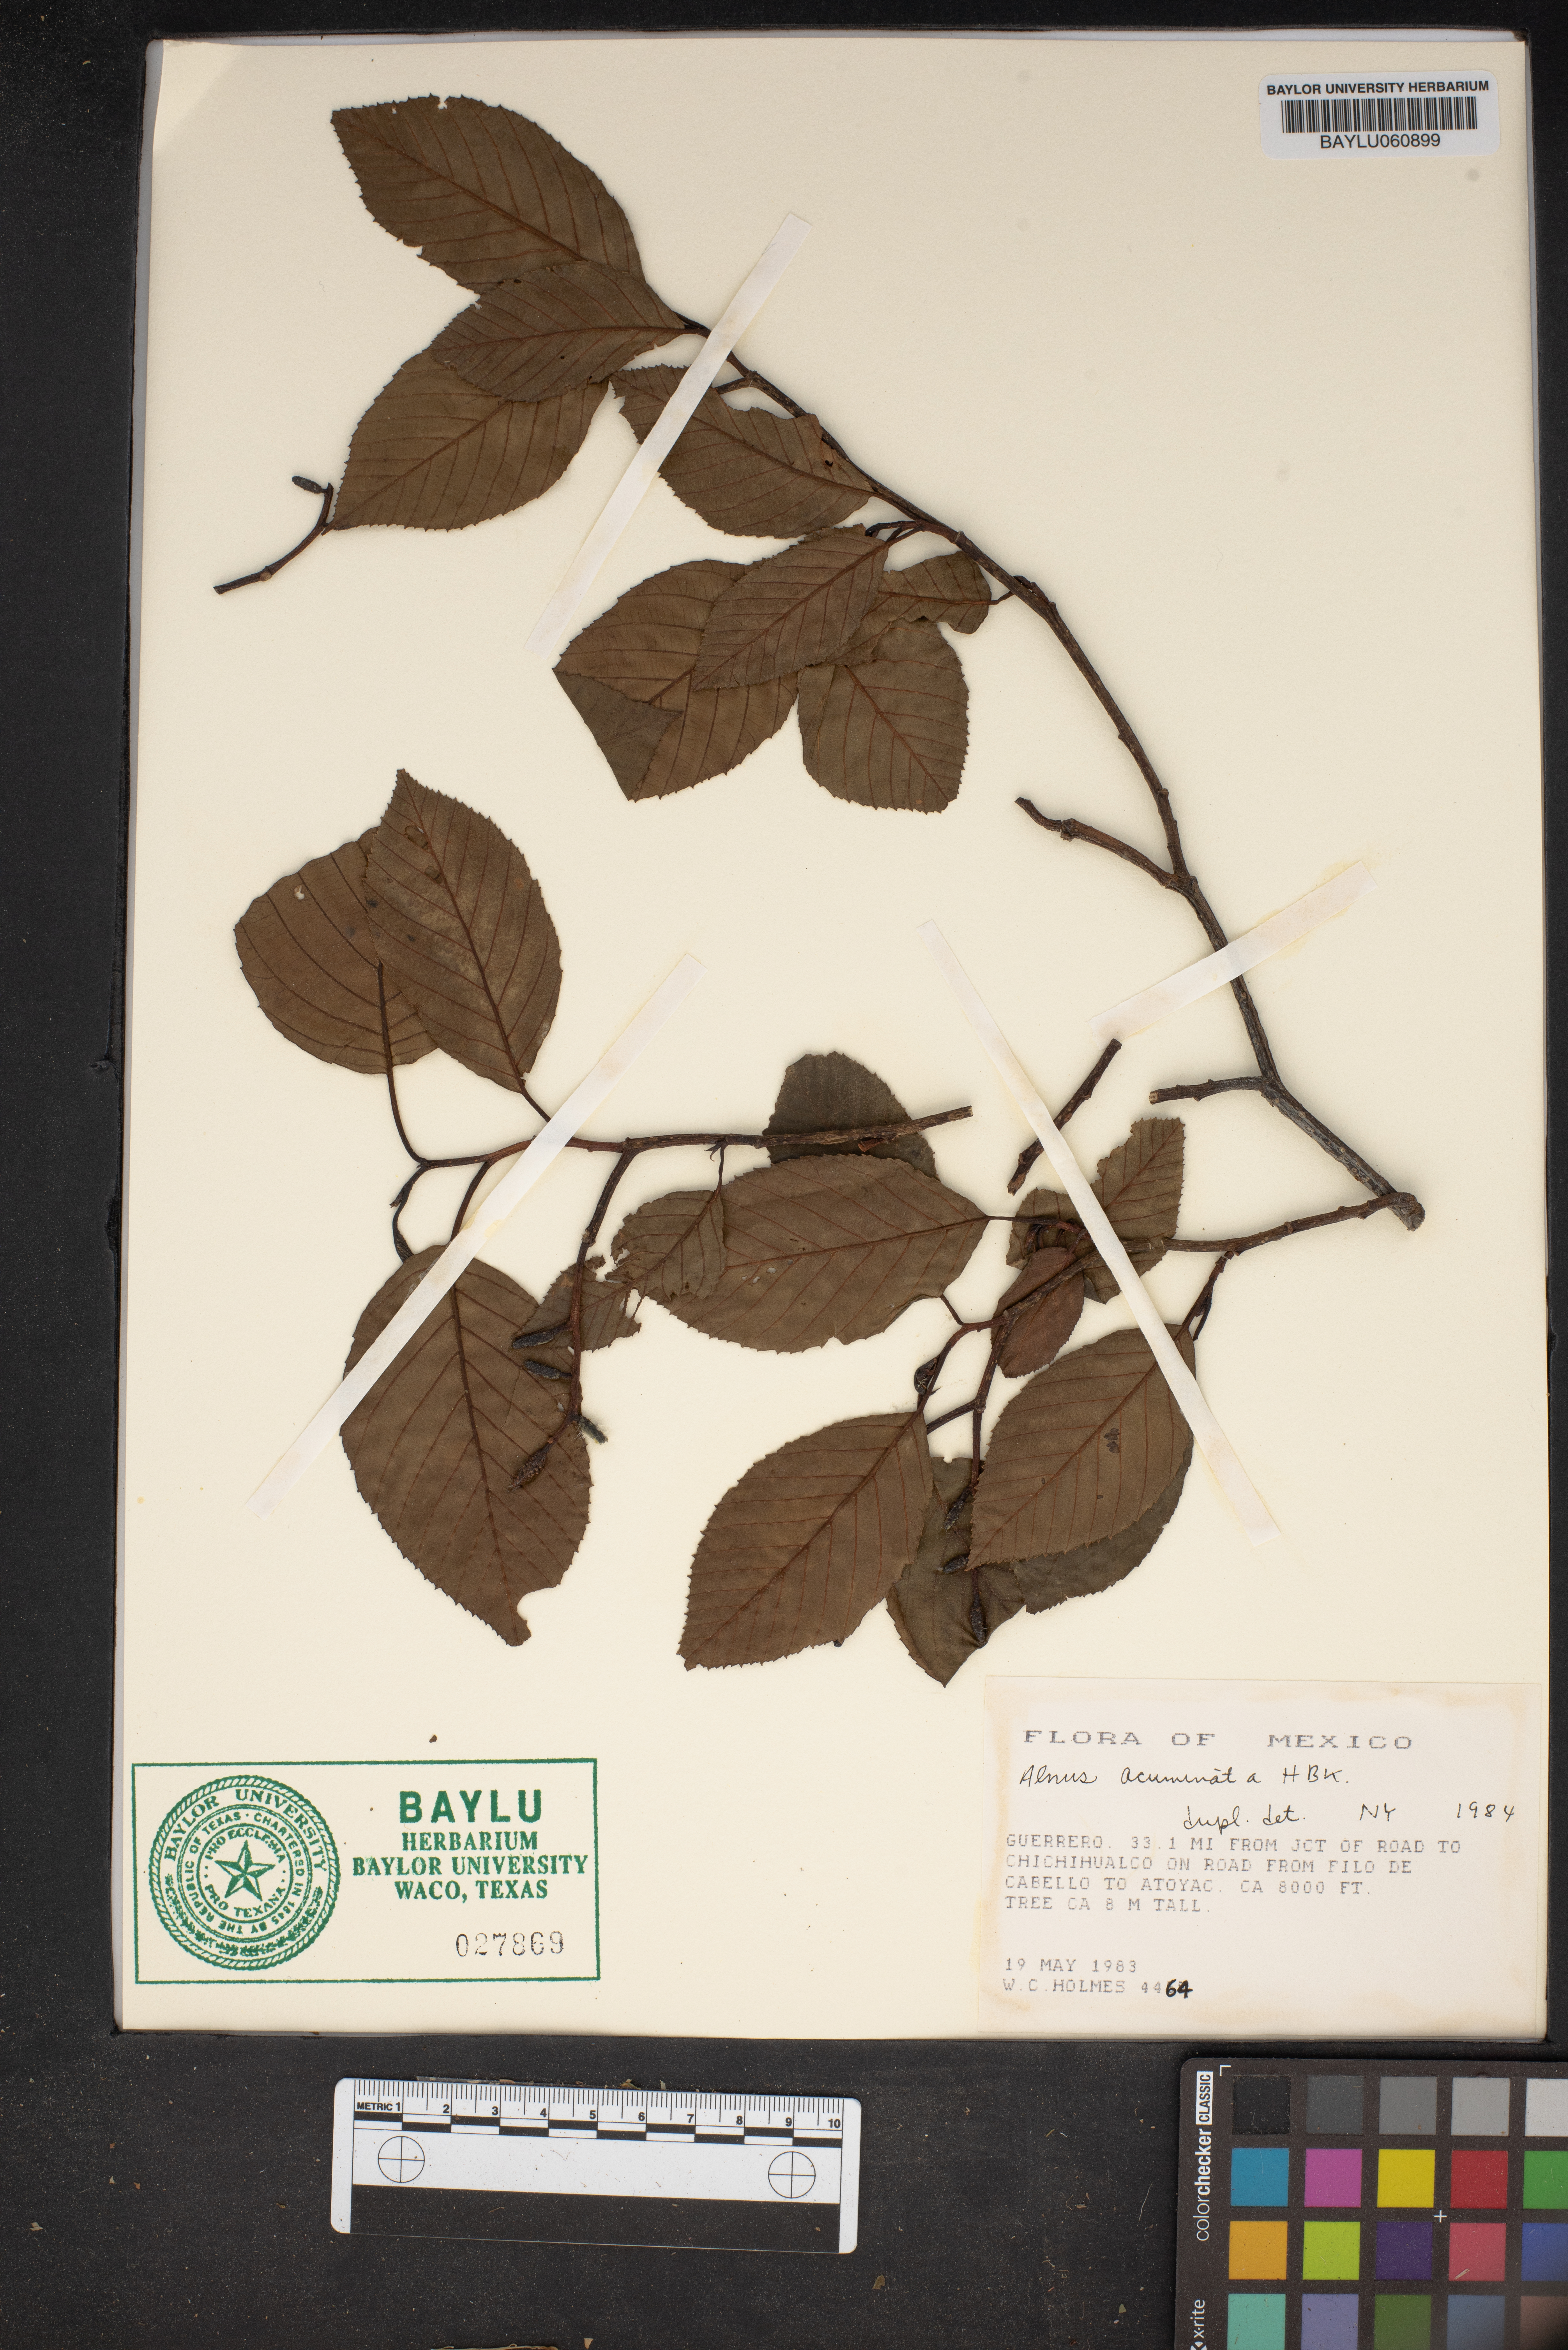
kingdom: Plantae
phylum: Tracheophyta
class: Magnoliopsida
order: Fagales
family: Betulaceae
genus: Alnus
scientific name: Alnus acuminata
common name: Alder
